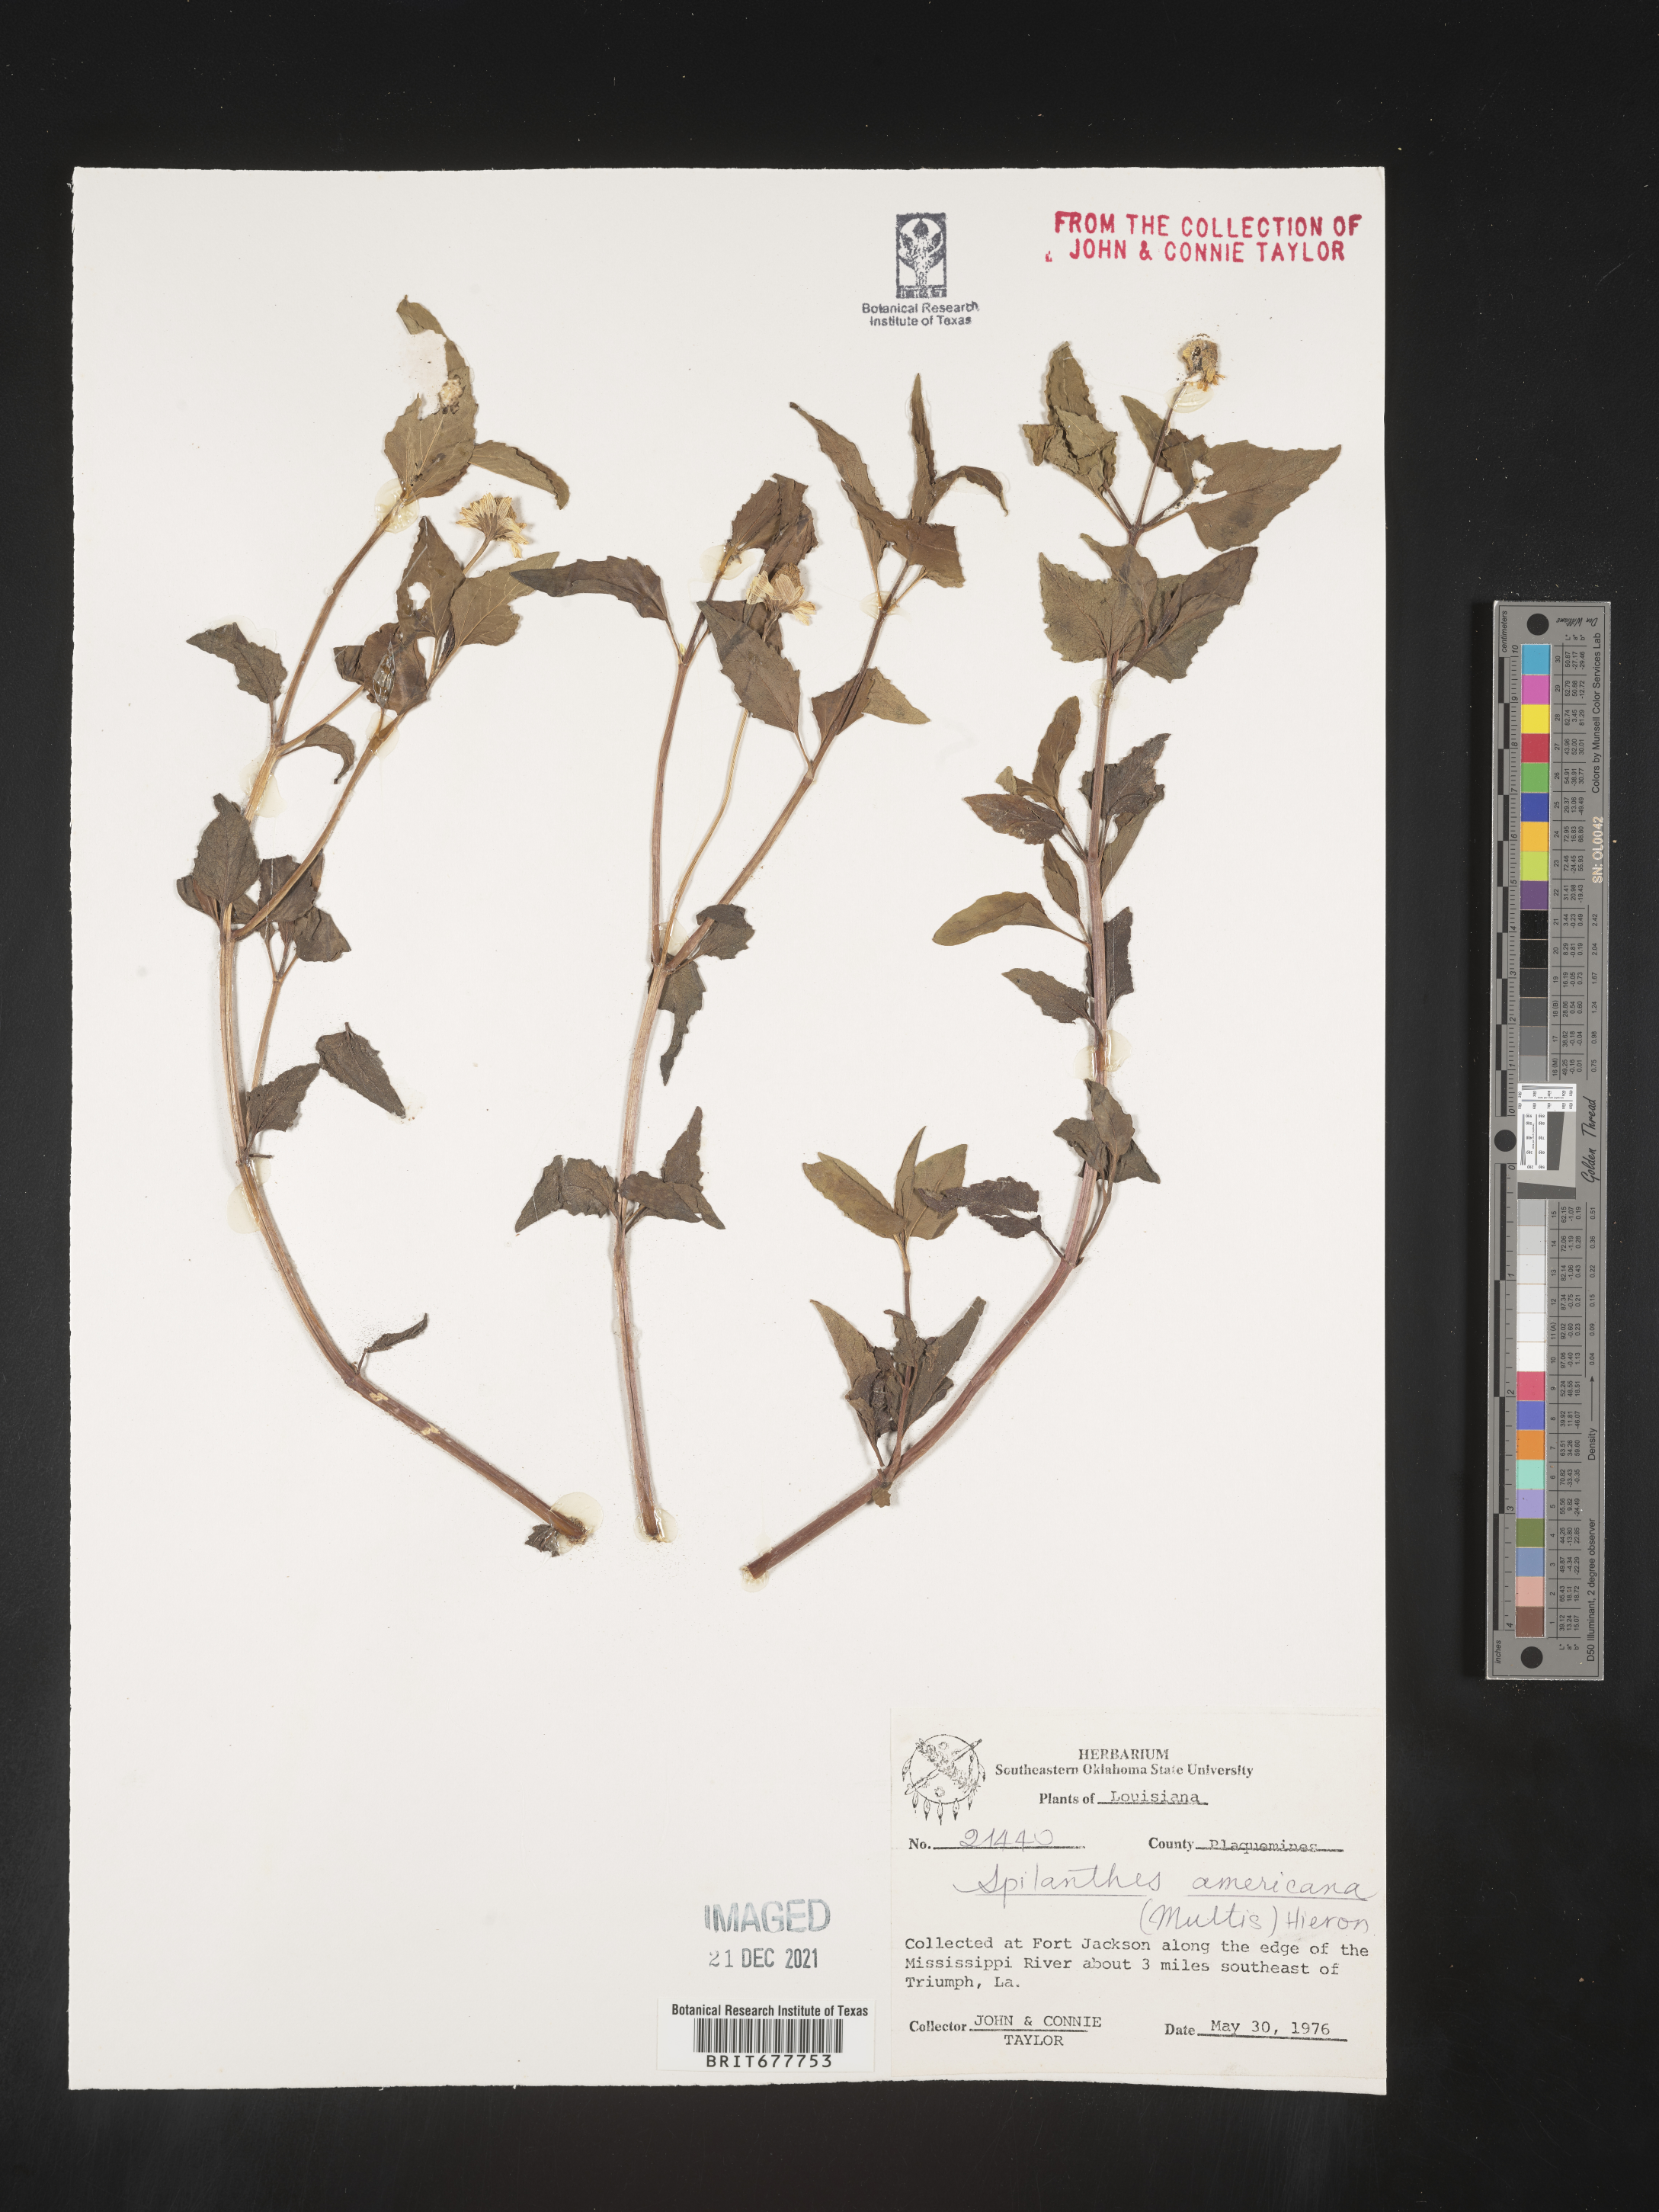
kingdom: Plantae
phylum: Tracheophyta
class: Magnoliopsida
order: Asterales
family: Asteraceae
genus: Spilanthes
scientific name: Spilanthes
